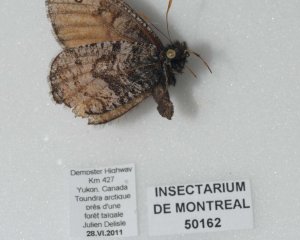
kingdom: Animalia
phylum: Arthropoda
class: Insecta
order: Lepidoptera
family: Nymphalidae
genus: Oeneis
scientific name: Oeneis uhleri
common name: Uhler's Arctic
